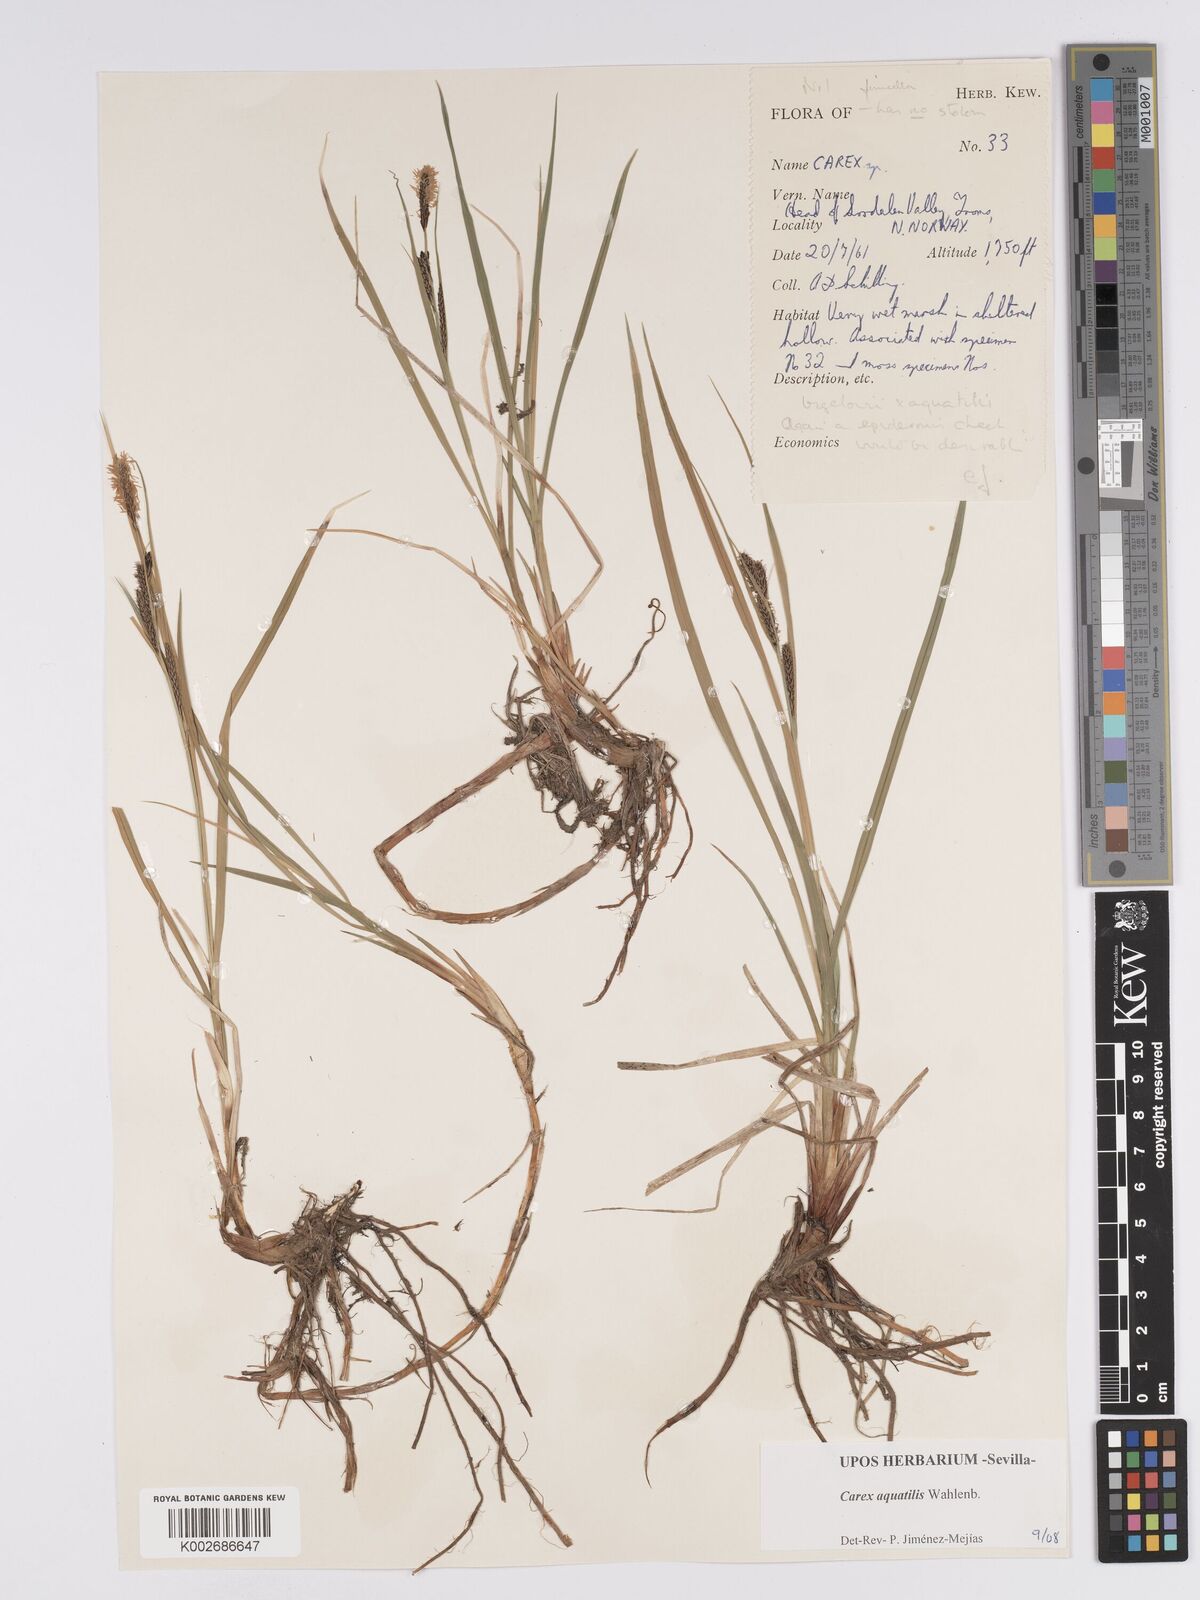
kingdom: Plantae
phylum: Tracheophyta
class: Liliopsida
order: Poales
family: Cyperaceae
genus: Carex
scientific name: Carex aquatilis
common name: Water sedge
